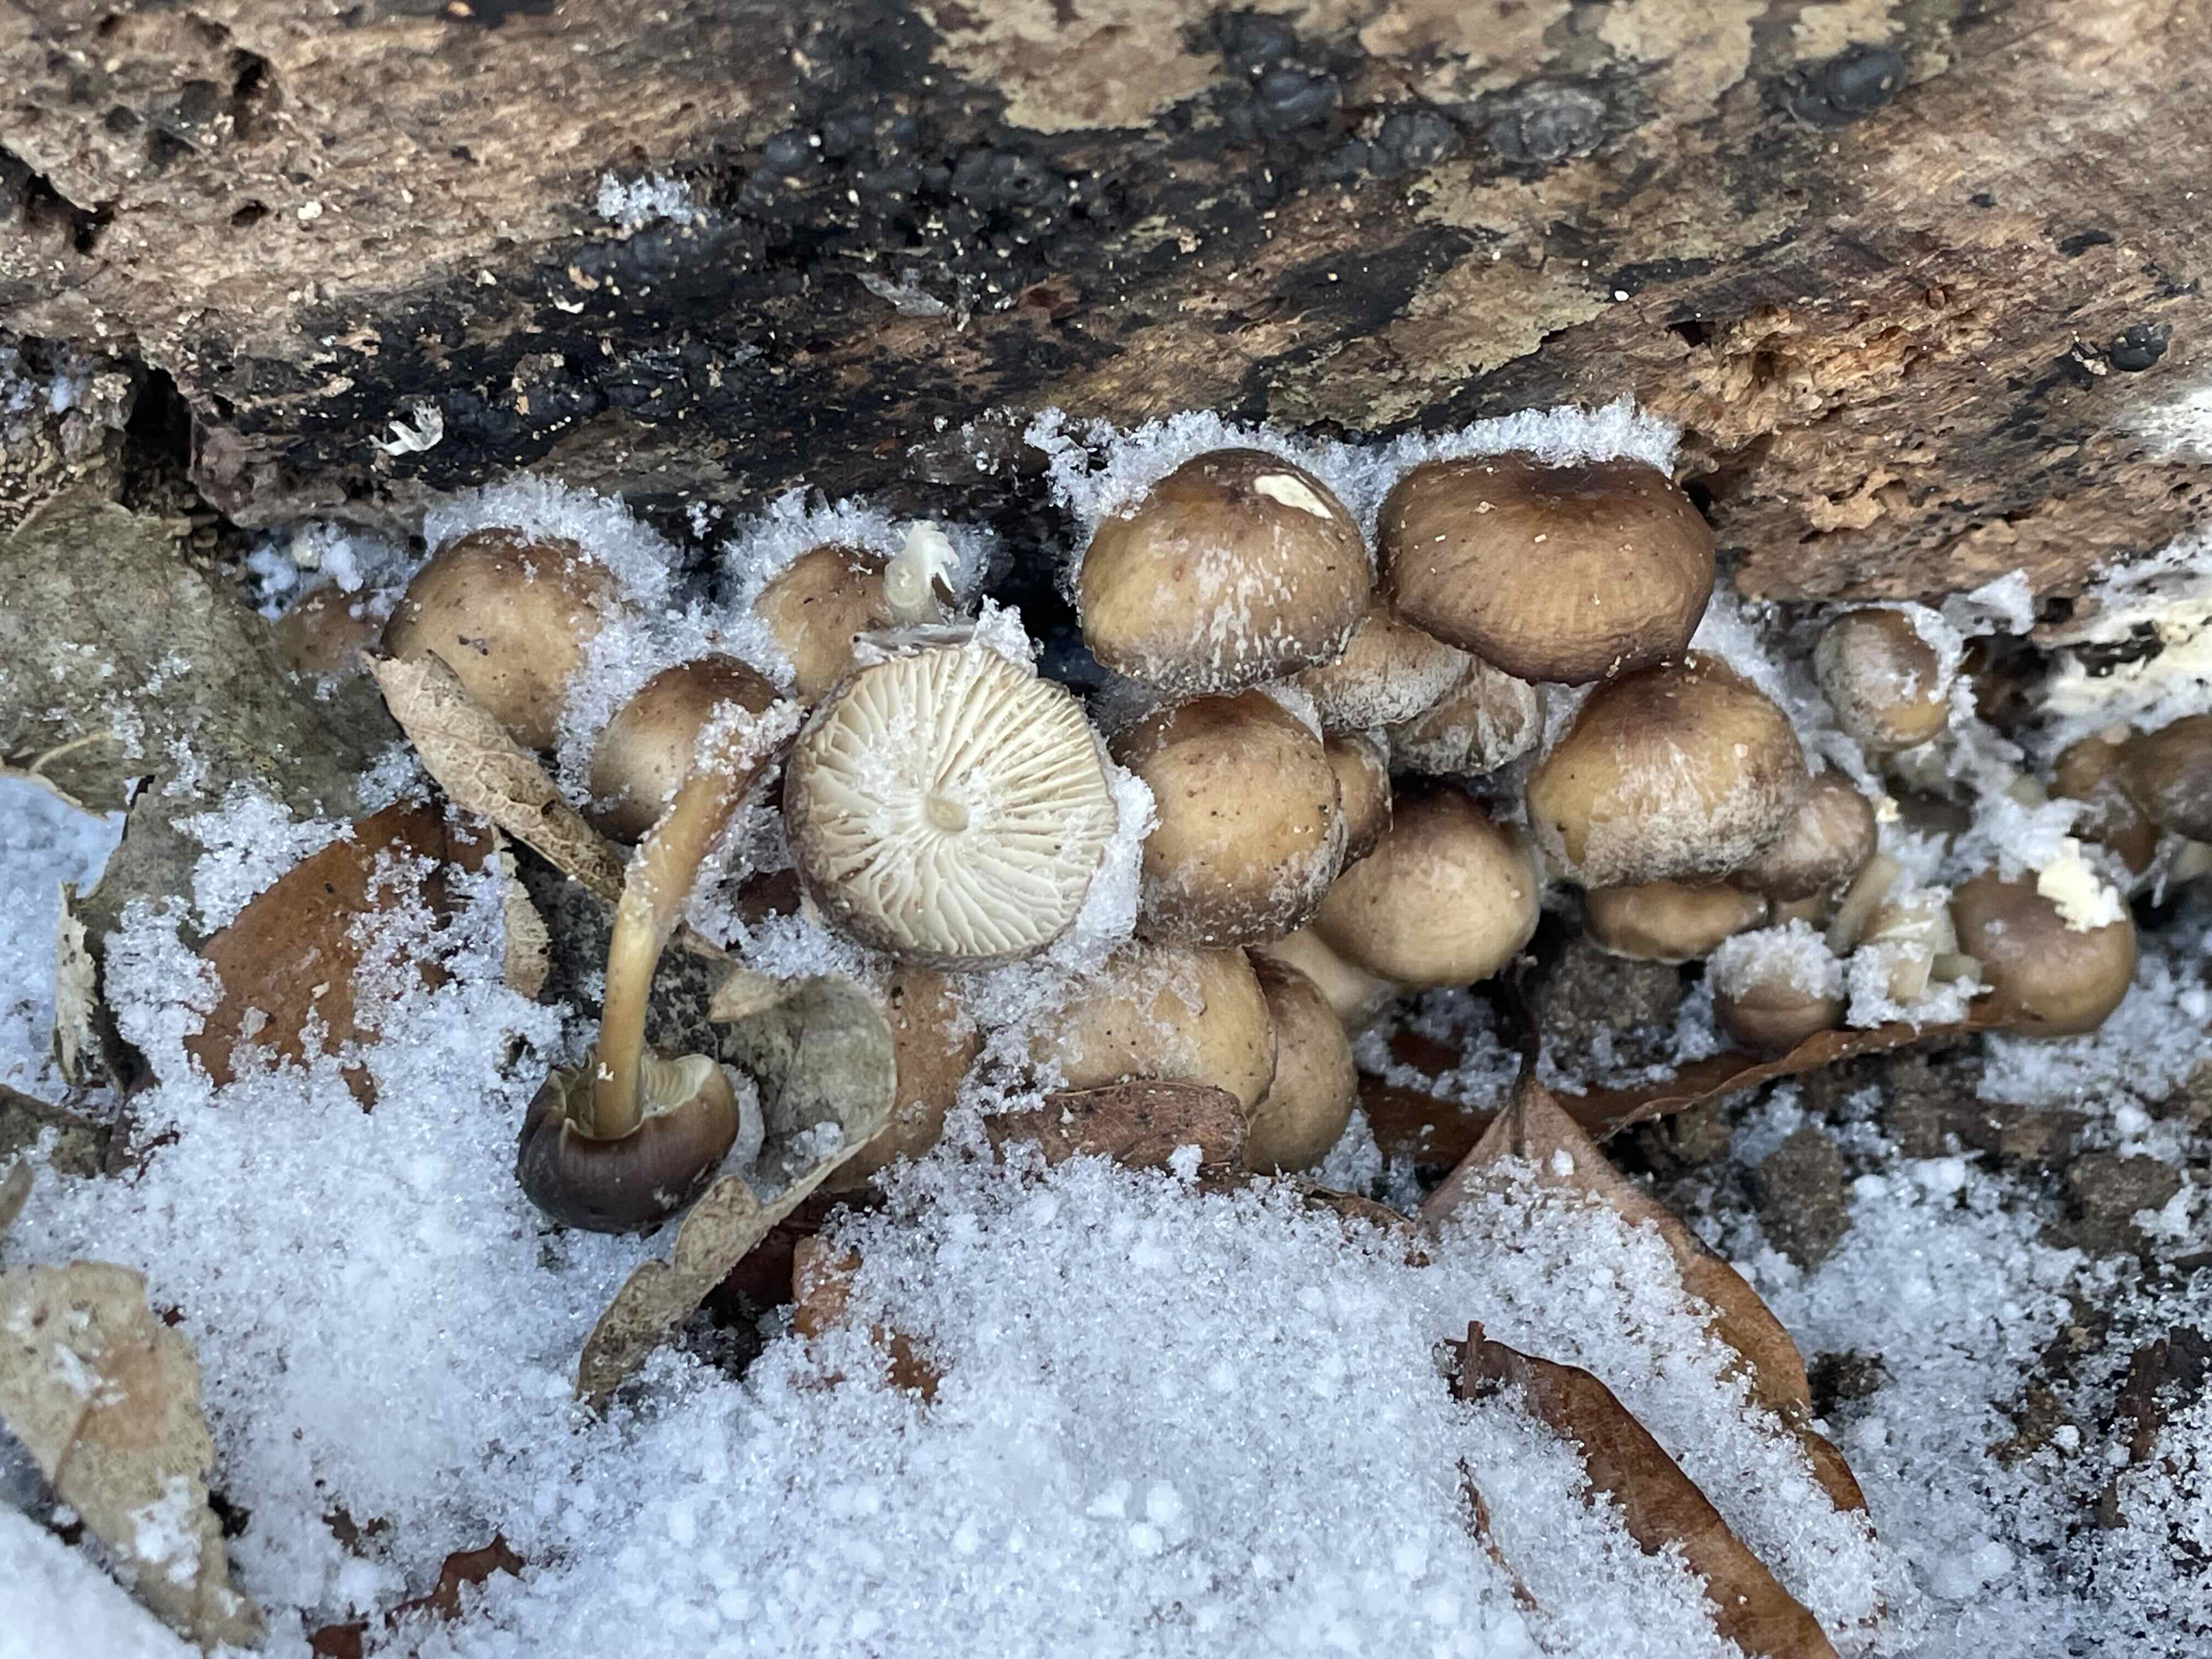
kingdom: Fungi
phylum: Basidiomycota
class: Agaricomycetes
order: Agaricales
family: Mycenaceae
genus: Mycena
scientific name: Mycena tintinnabulum
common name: vinter-huesvamp
